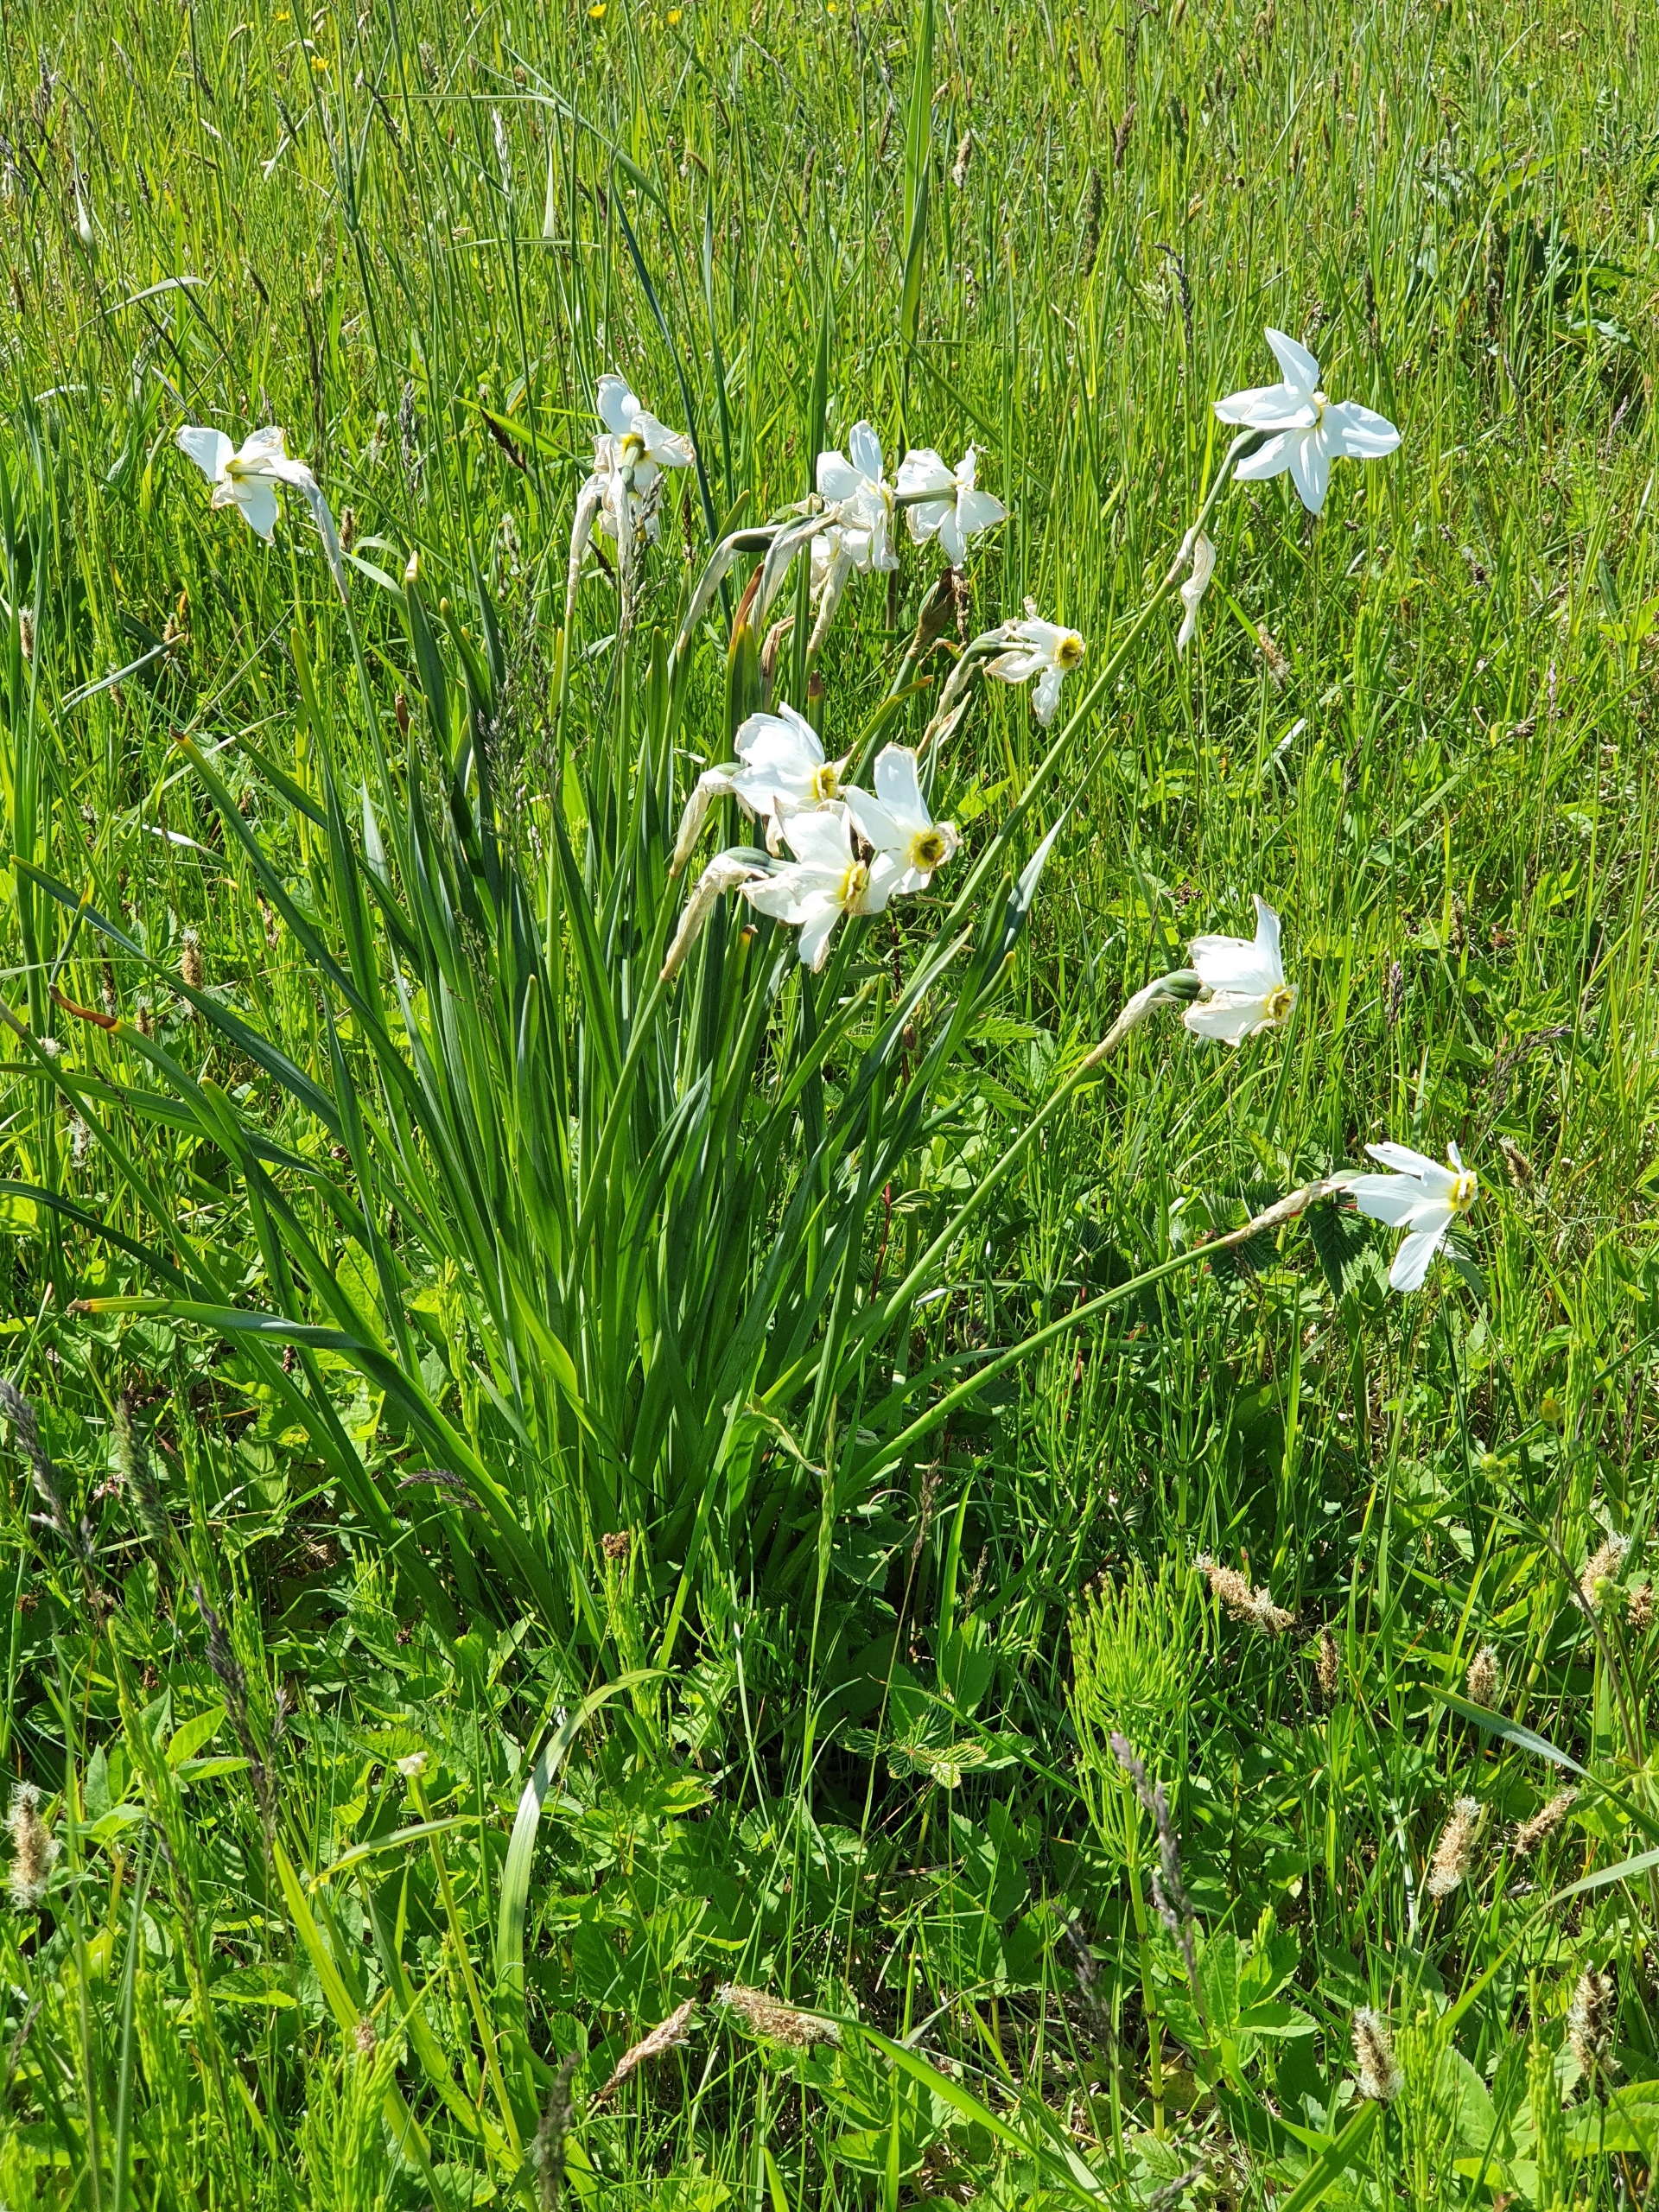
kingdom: Plantae
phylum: Tracheophyta
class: Liliopsida
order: Asparagales
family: Amaryllidaceae
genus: Narcissus
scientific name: Narcissus poeticus
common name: Pinselilje
